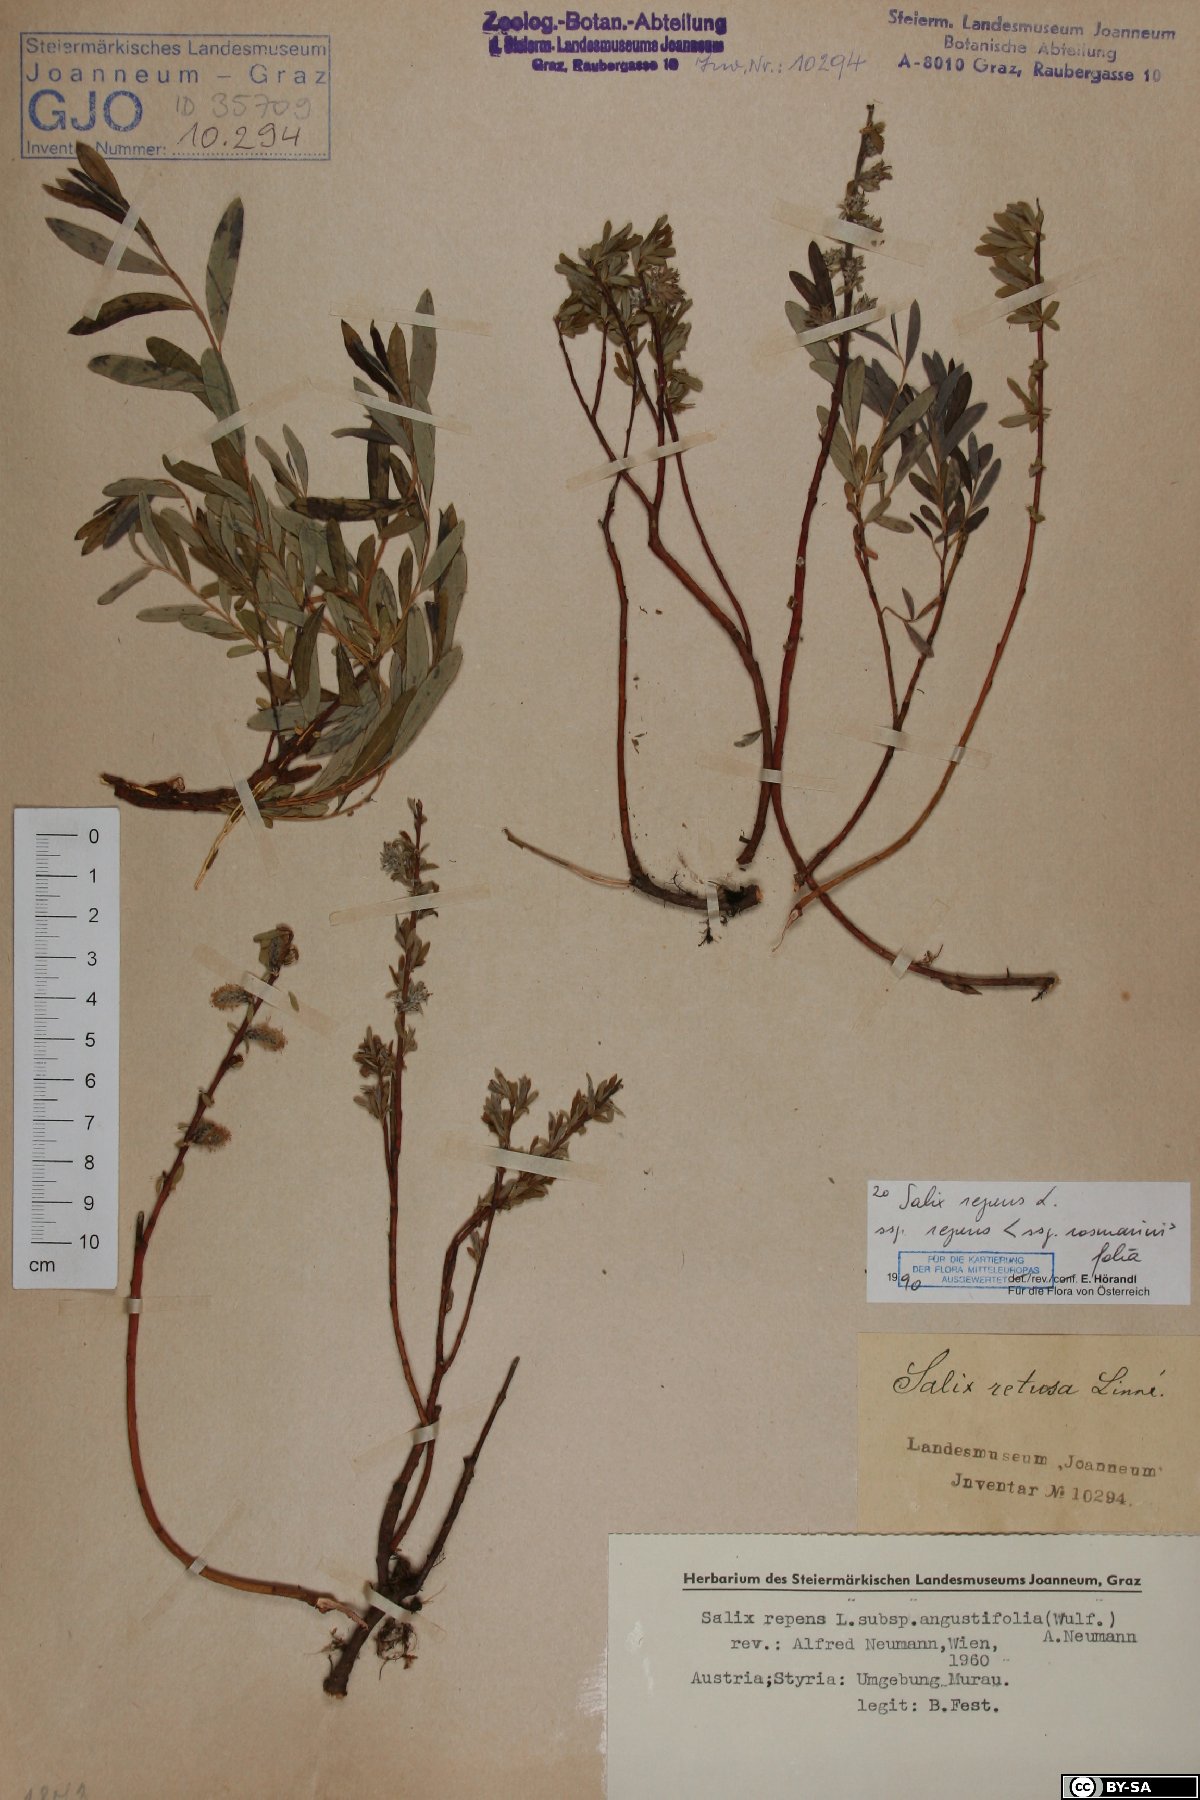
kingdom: Plantae
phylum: Tracheophyta
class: Magnoliopsida
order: Malpighiales
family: Salicaceae
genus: Salix
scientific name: Salix repens
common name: Creeping willow
